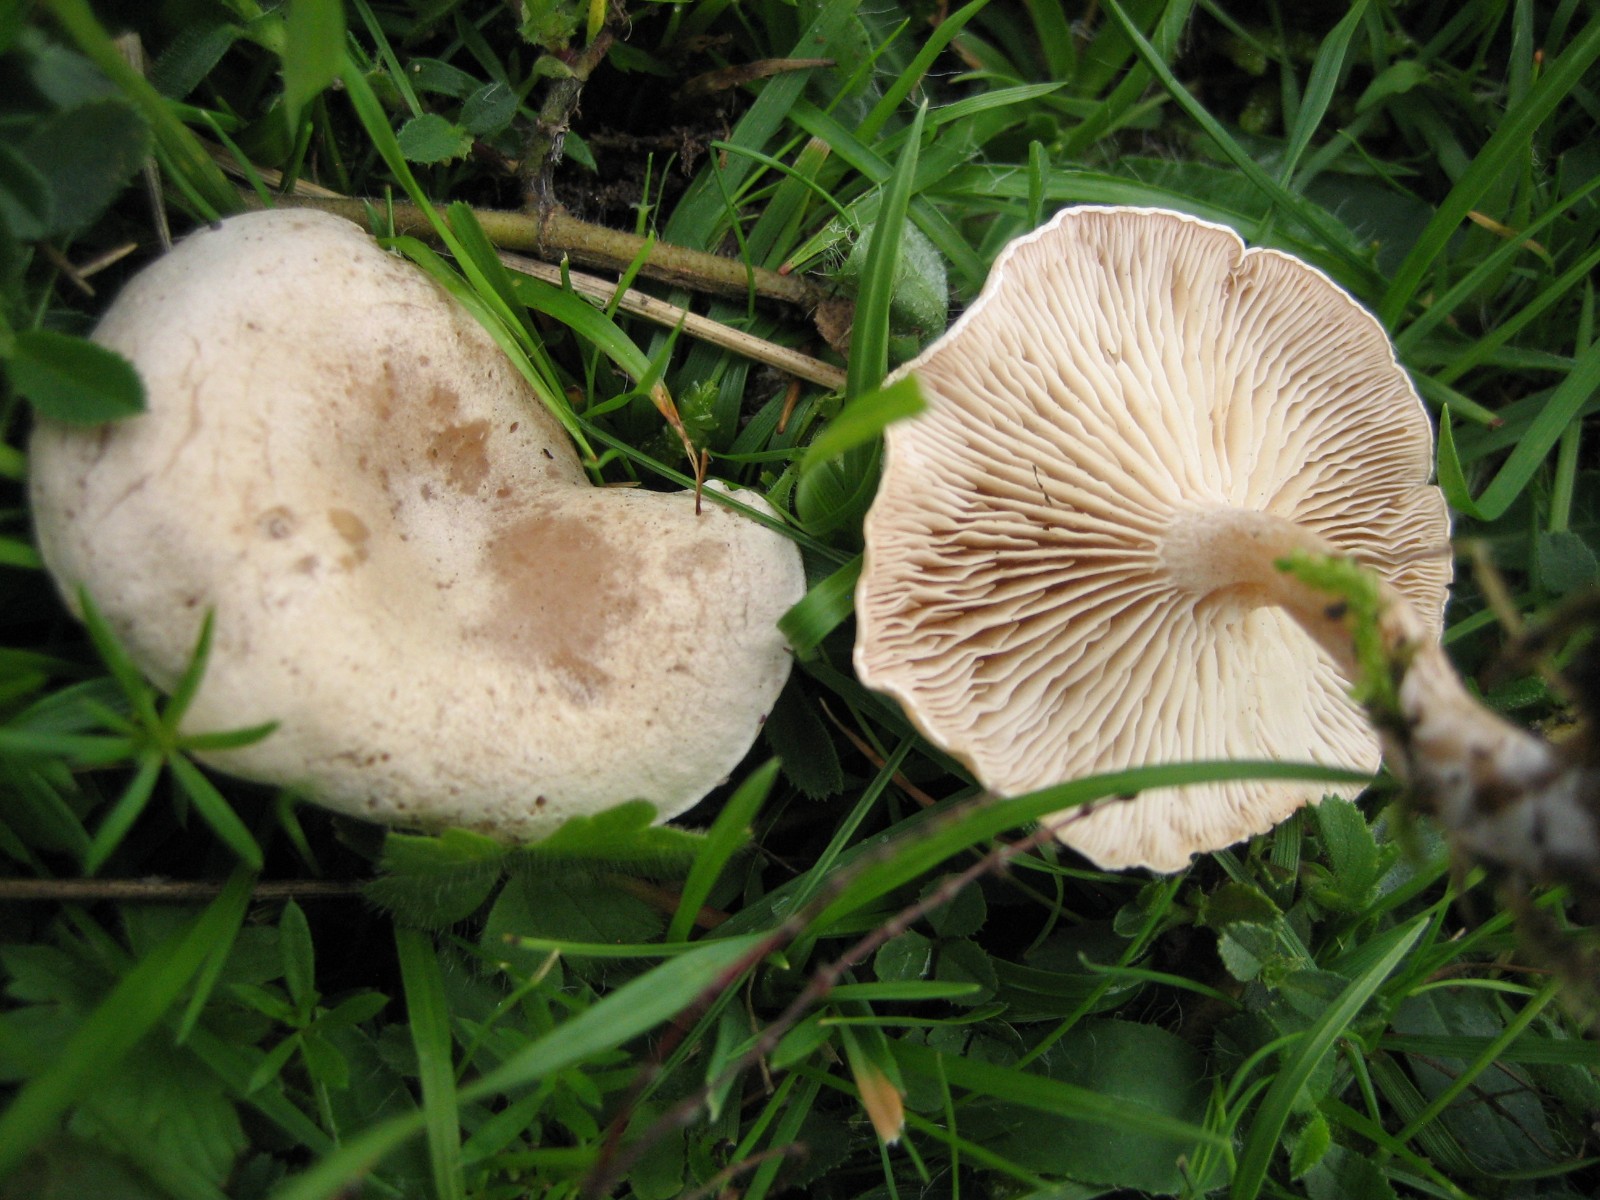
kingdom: Fungi
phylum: Basidiomycota
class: Agaricomycetes
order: Agaricales
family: Tricholomataceae
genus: Clitocybe
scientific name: Clitocybe rivulosa
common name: eng-tragthat
